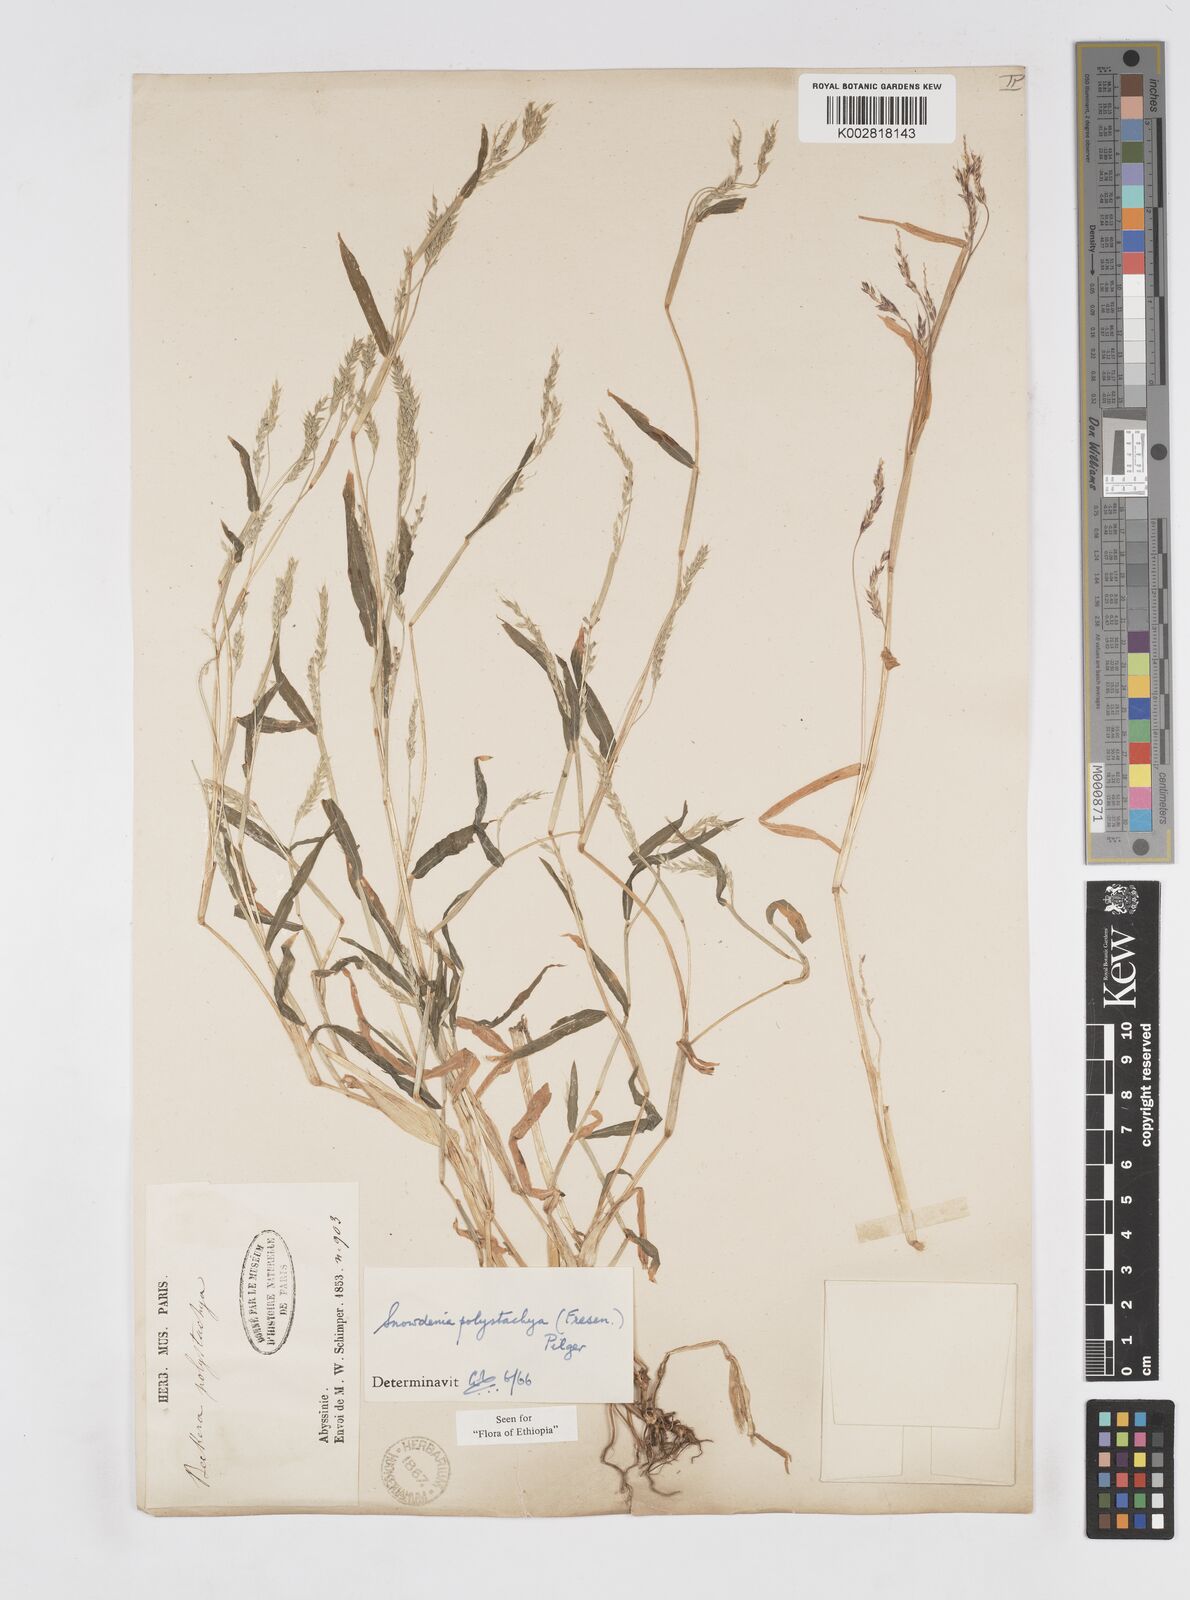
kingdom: Plantae
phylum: Tracheophyta
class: Liliopsida
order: Poales
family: Poaceae
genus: Snowdenia
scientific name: Snowdenia polystachya
